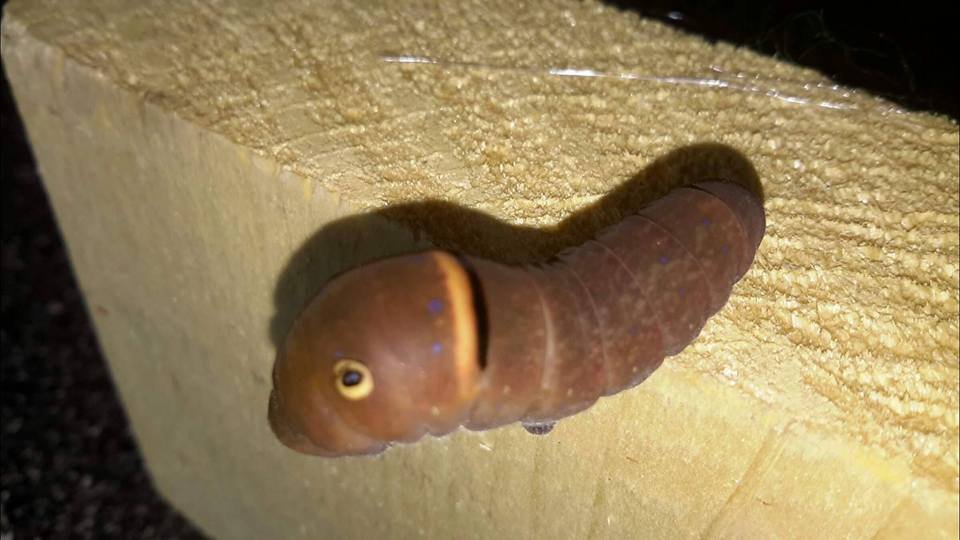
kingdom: Animalia
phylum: Arthropoda
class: Insecta
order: Lepidoptera
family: Papilionidae
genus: Pterourus
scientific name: Pterourus canadensis
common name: Canadian Tiger Swallowtail
